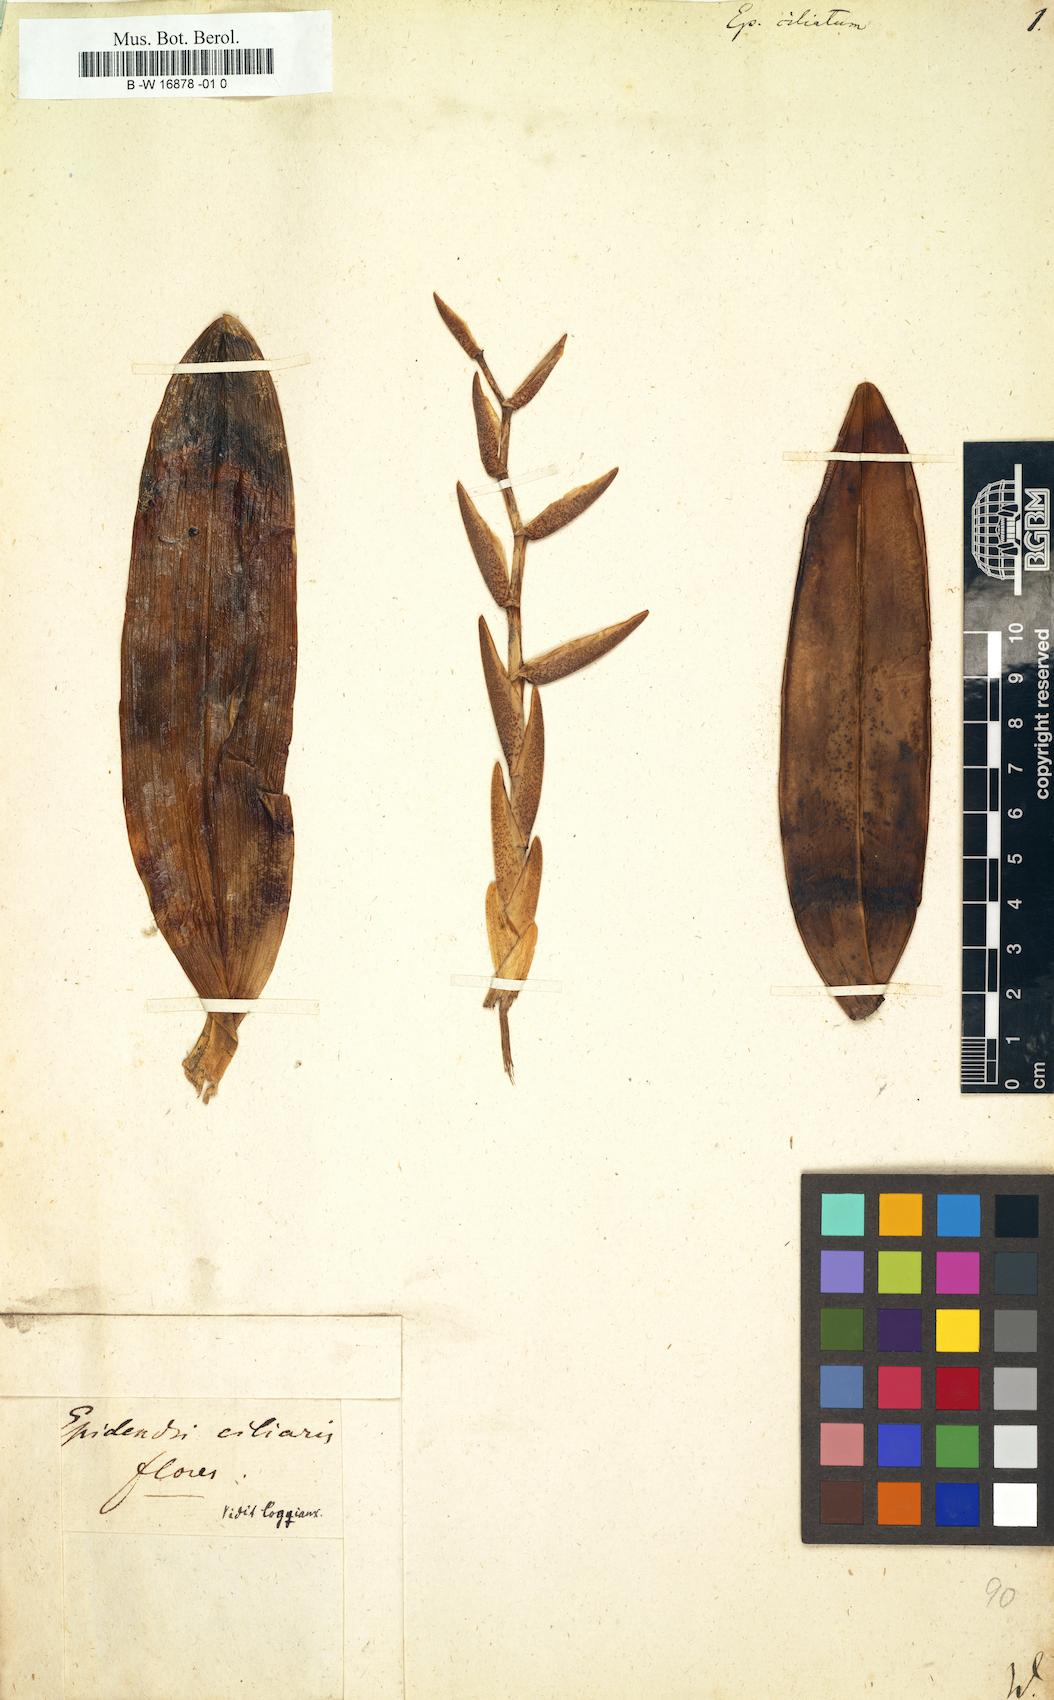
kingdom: Plantae
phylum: Tracheophyta
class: Liliopsida
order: Asparagales
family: Orchidaceae
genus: Epidendrum
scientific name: Epidendrum ciliare
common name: Eyelash orchid
